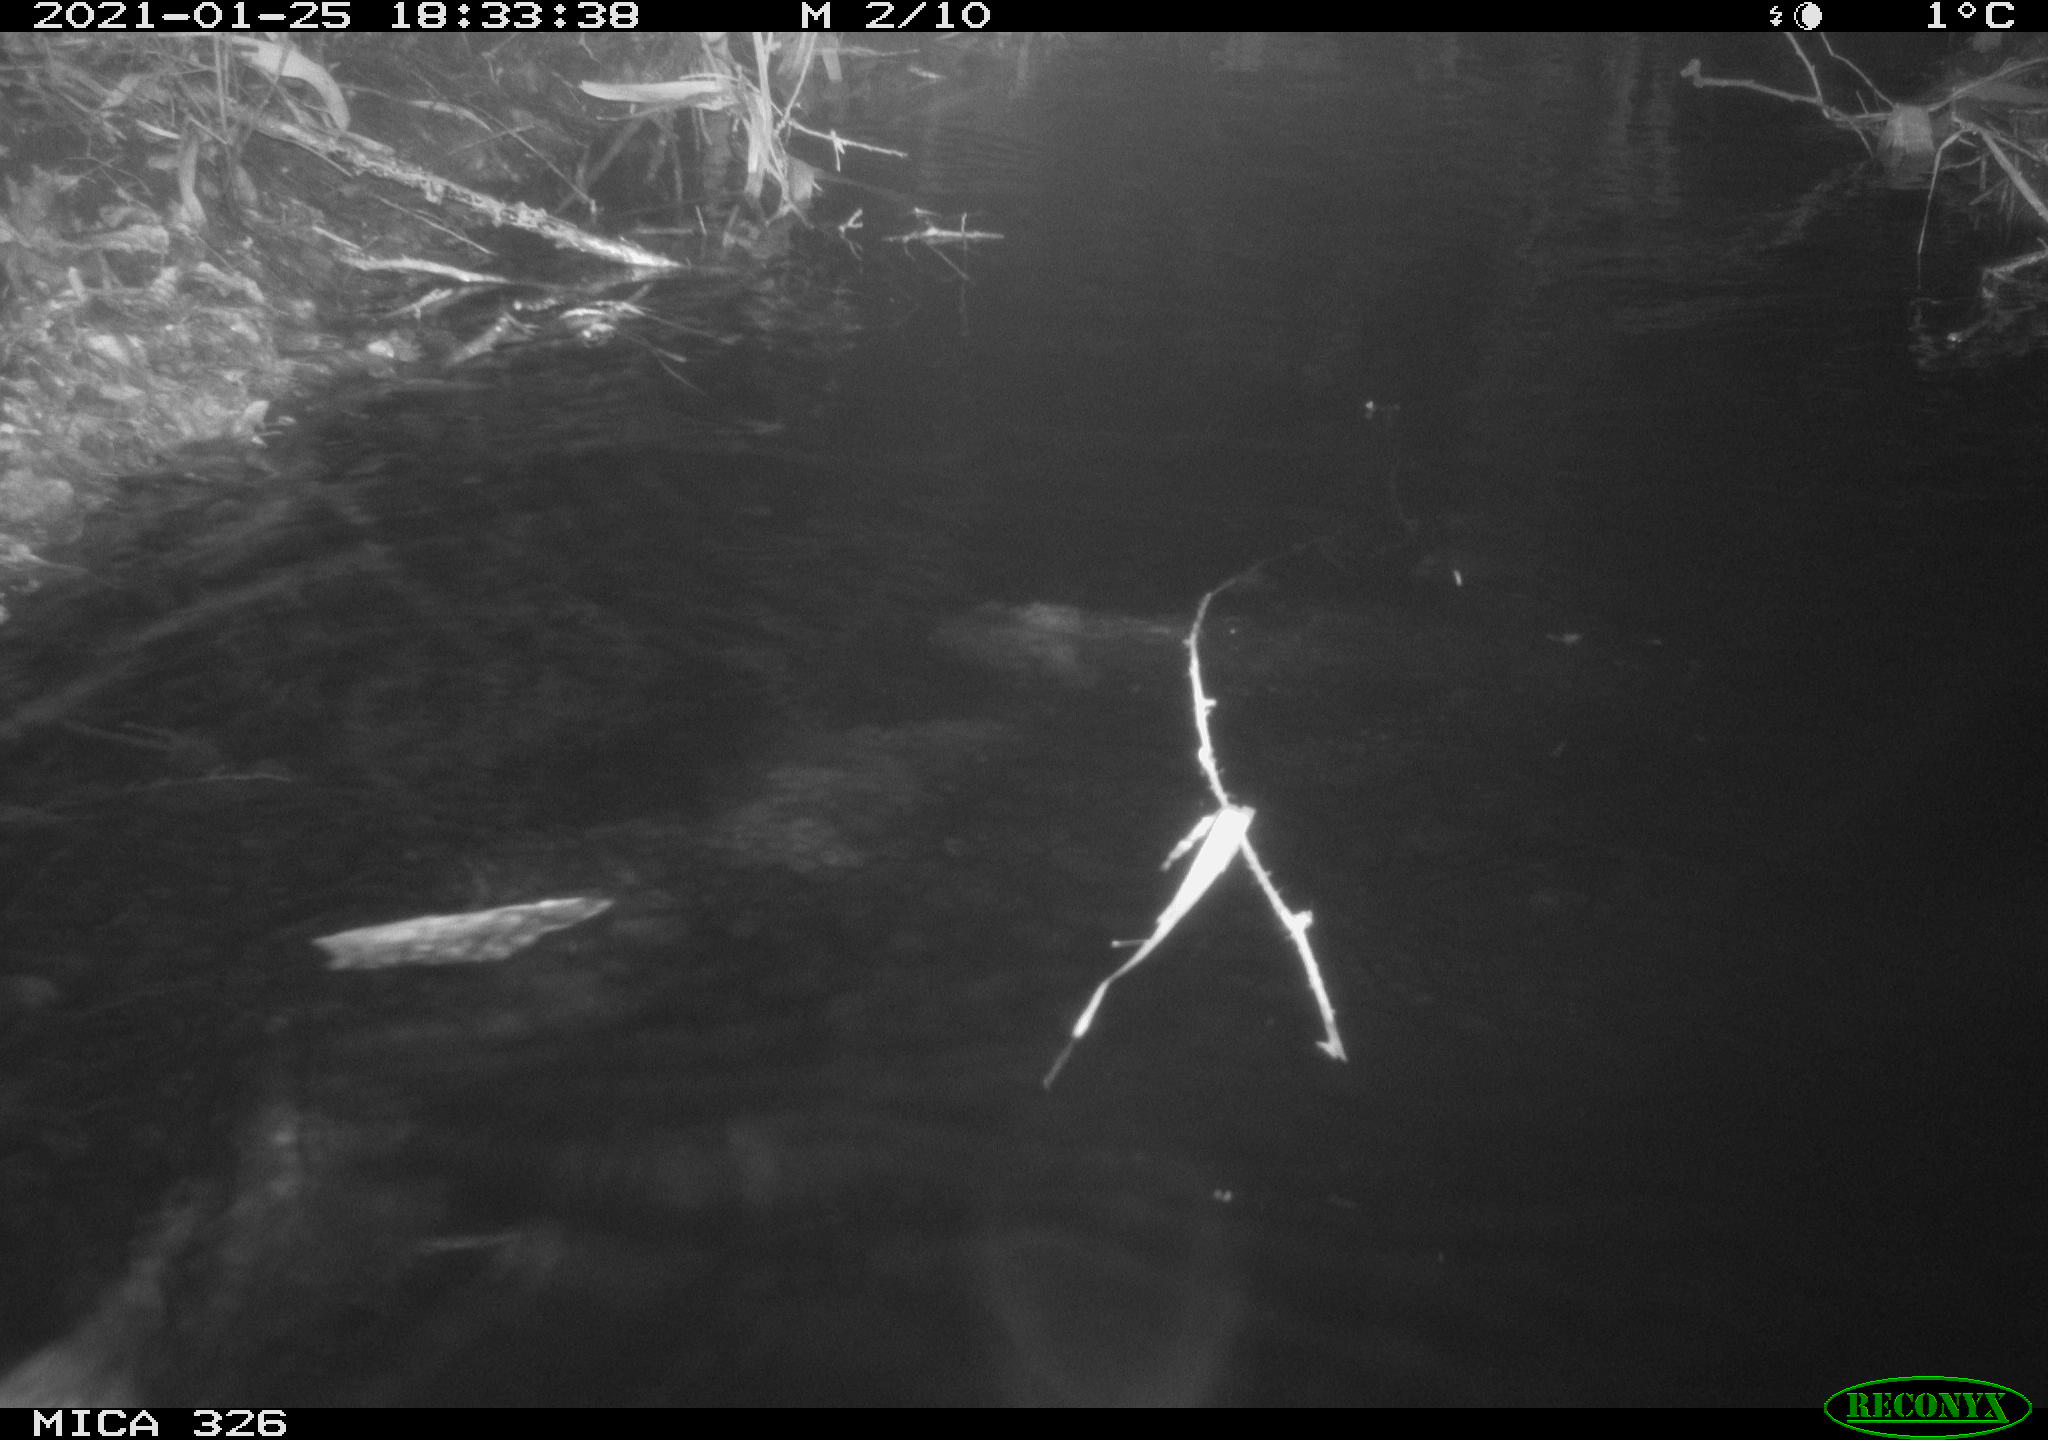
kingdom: Animalia
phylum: Chordata
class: Mammalia
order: Rodentia
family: Myocastoridae
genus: Myocastor
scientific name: Myocastor coypus
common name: Coypu
